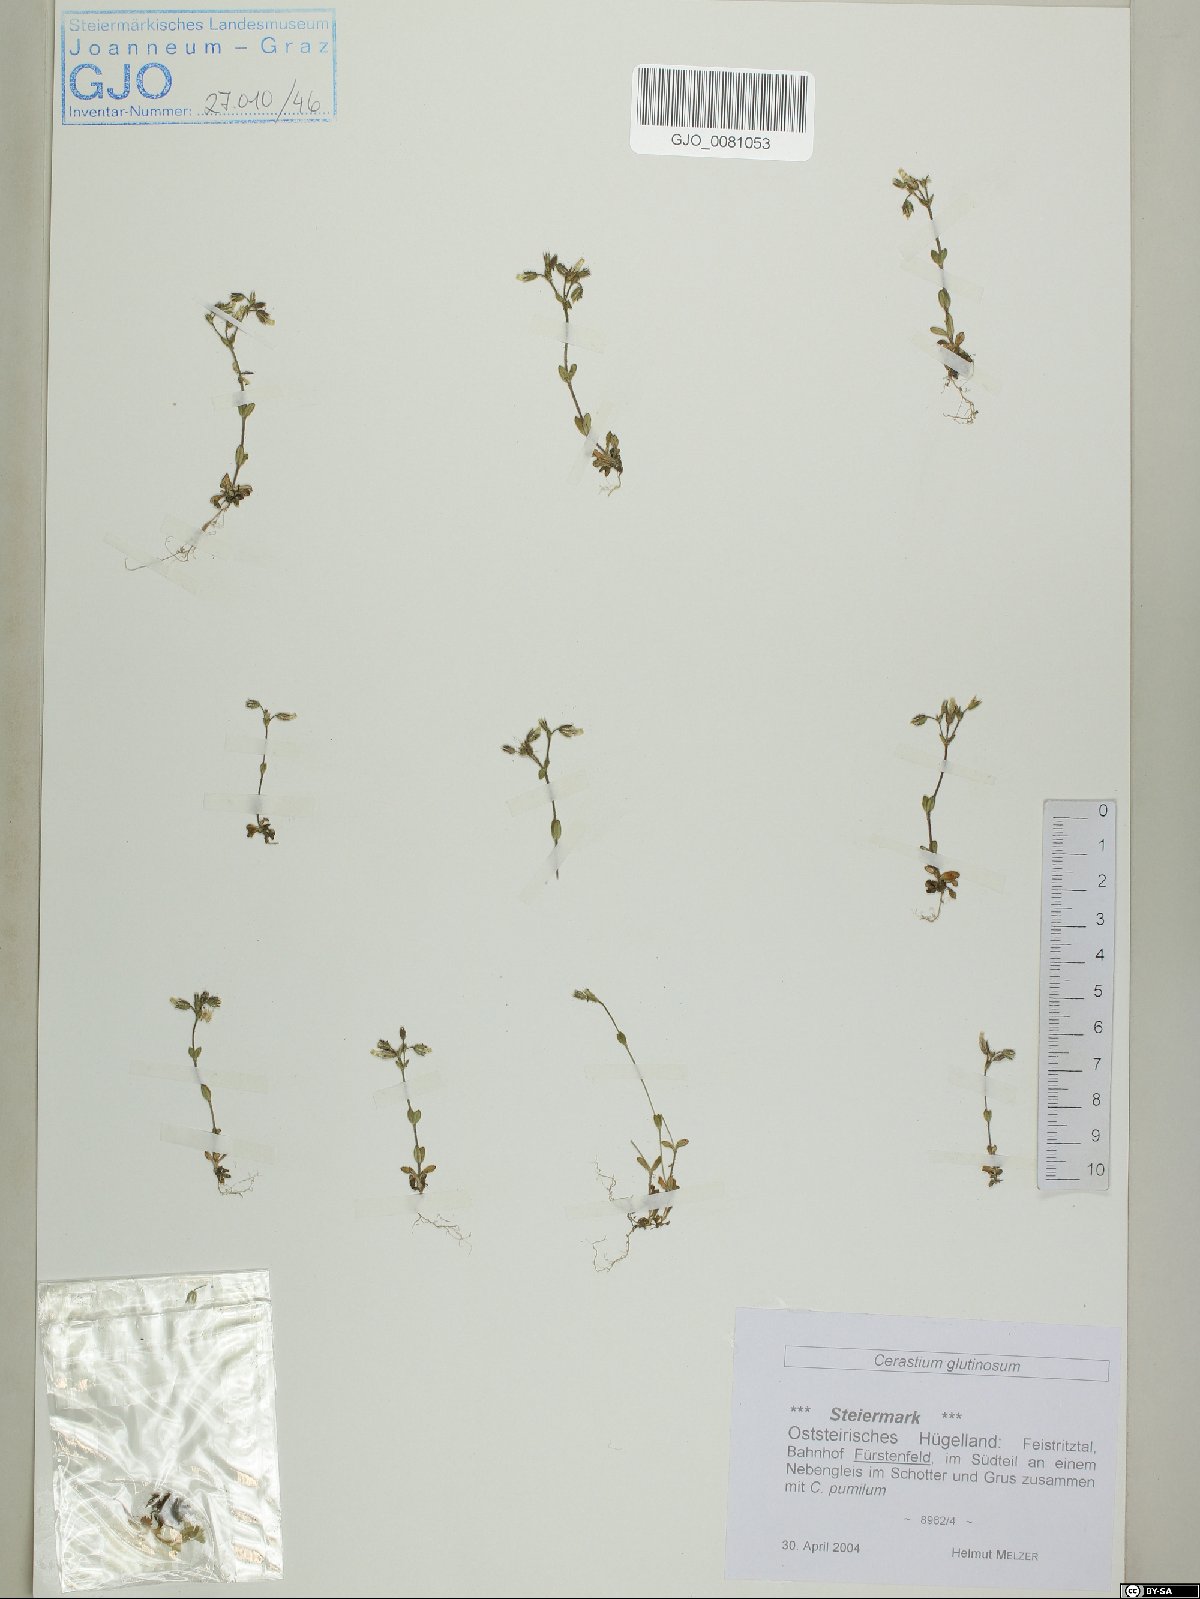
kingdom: Plantae
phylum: Tracheophyta
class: Magnoliopsida
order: Caryophyllales
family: Caryophyllaceae
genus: Cerastium
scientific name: Cerastium glutinosum
